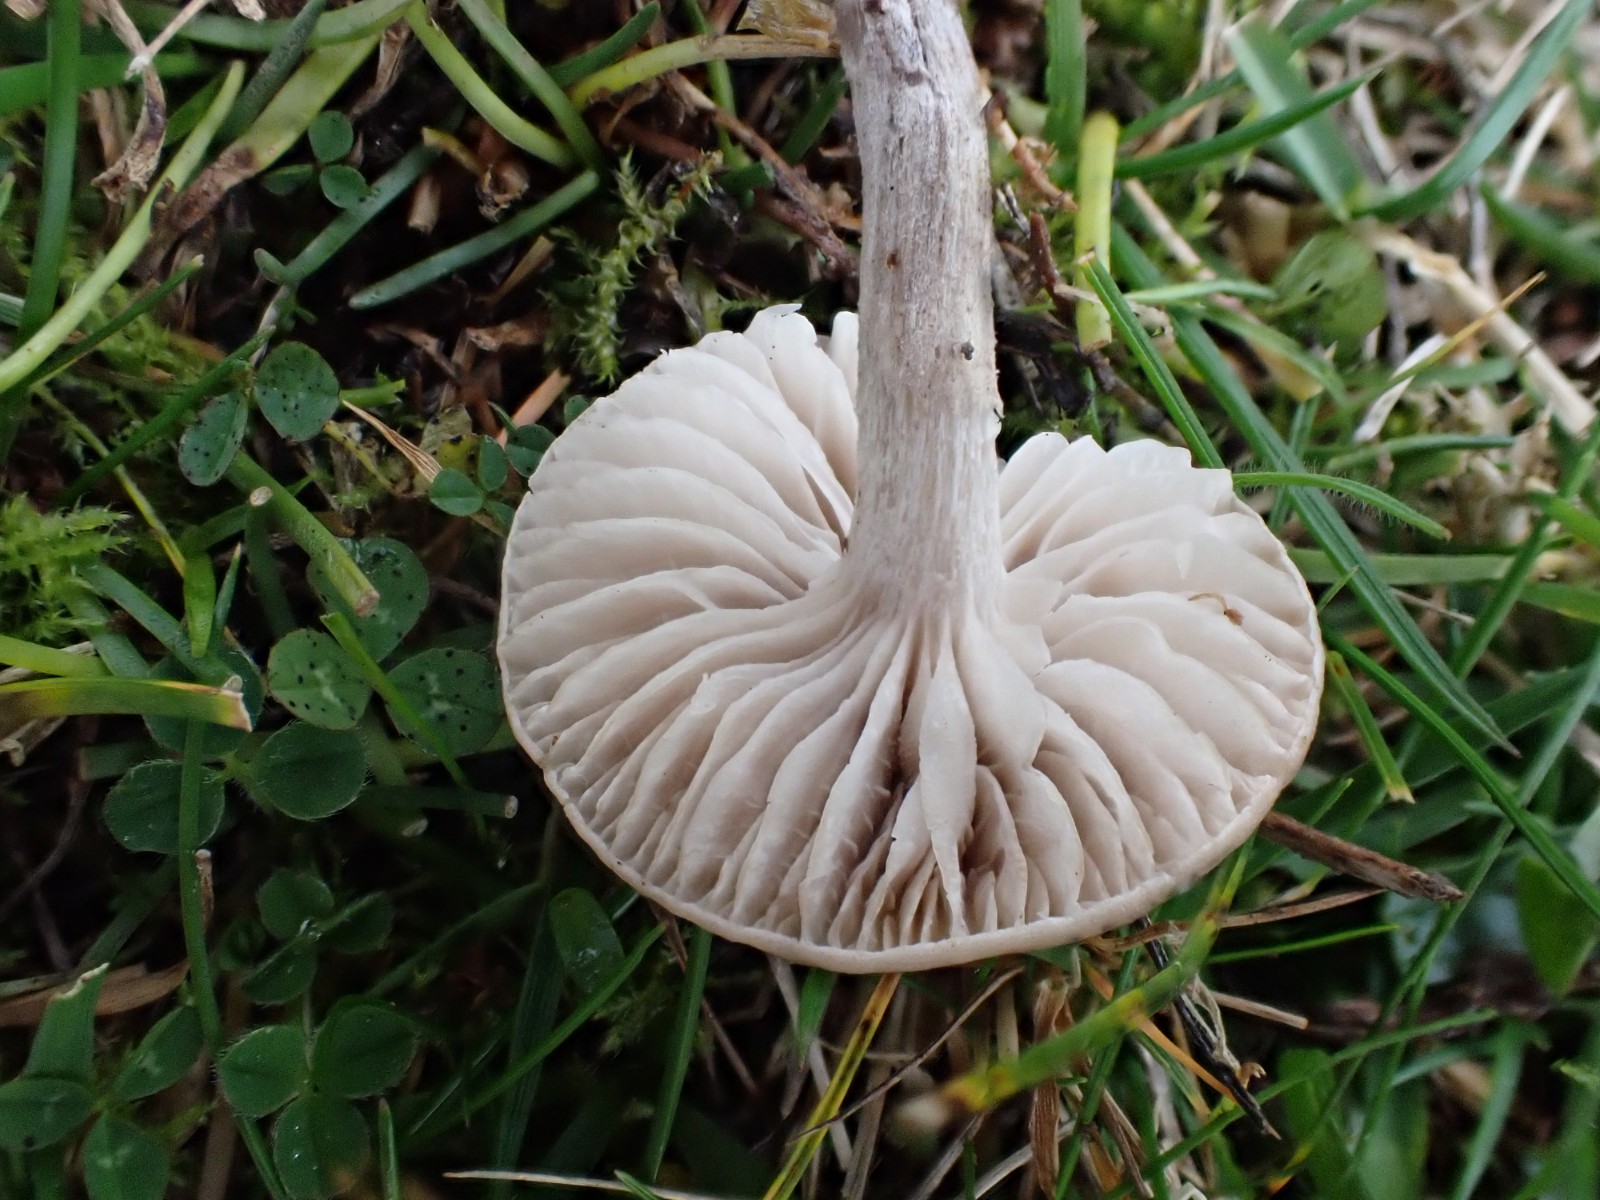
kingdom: Fungi
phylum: Basidiomycota
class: Agaricomycetes
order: Agaricales
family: Tricholomataceae
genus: Dermoloma
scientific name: Dermoloma cuneifolium
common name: eng-nonnehat
